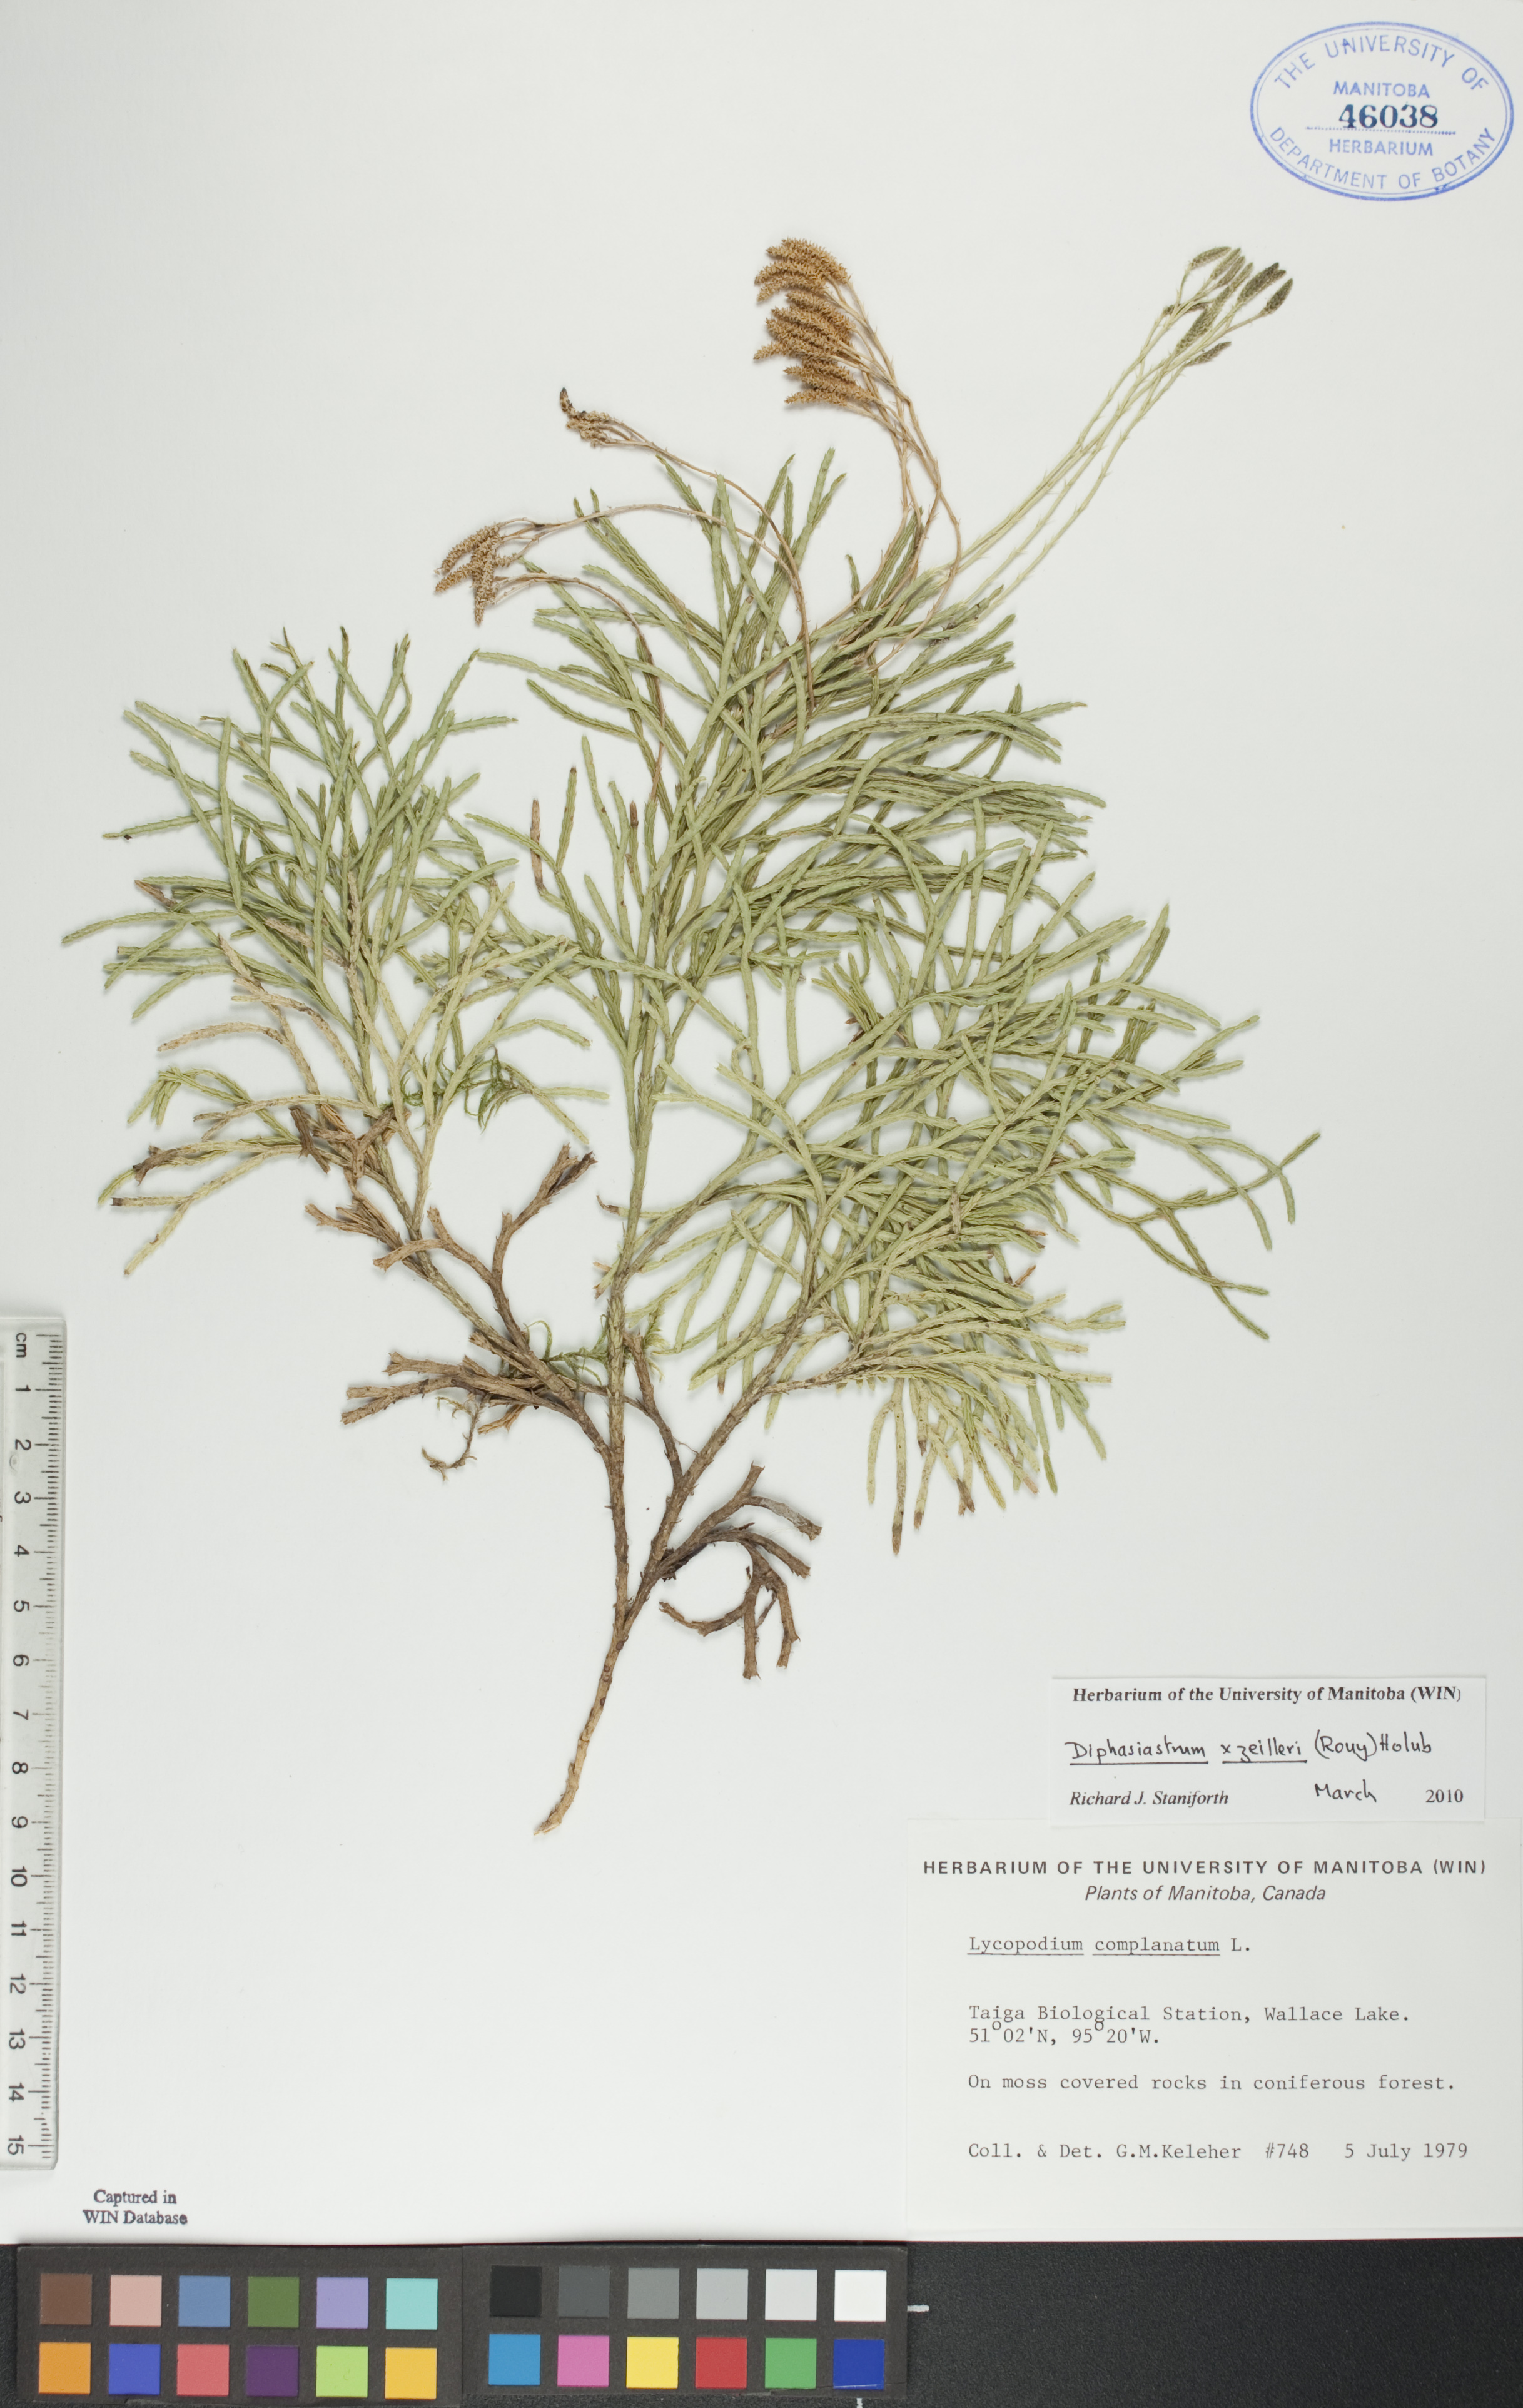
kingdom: Plantae
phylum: Tracheophyta
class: Lycopodiopsida
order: Lycopodiales
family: Lycopodiaceae
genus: Diphasiastrum
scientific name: Diphasiastrum zeilleri
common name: Zeiller's clubmoss
